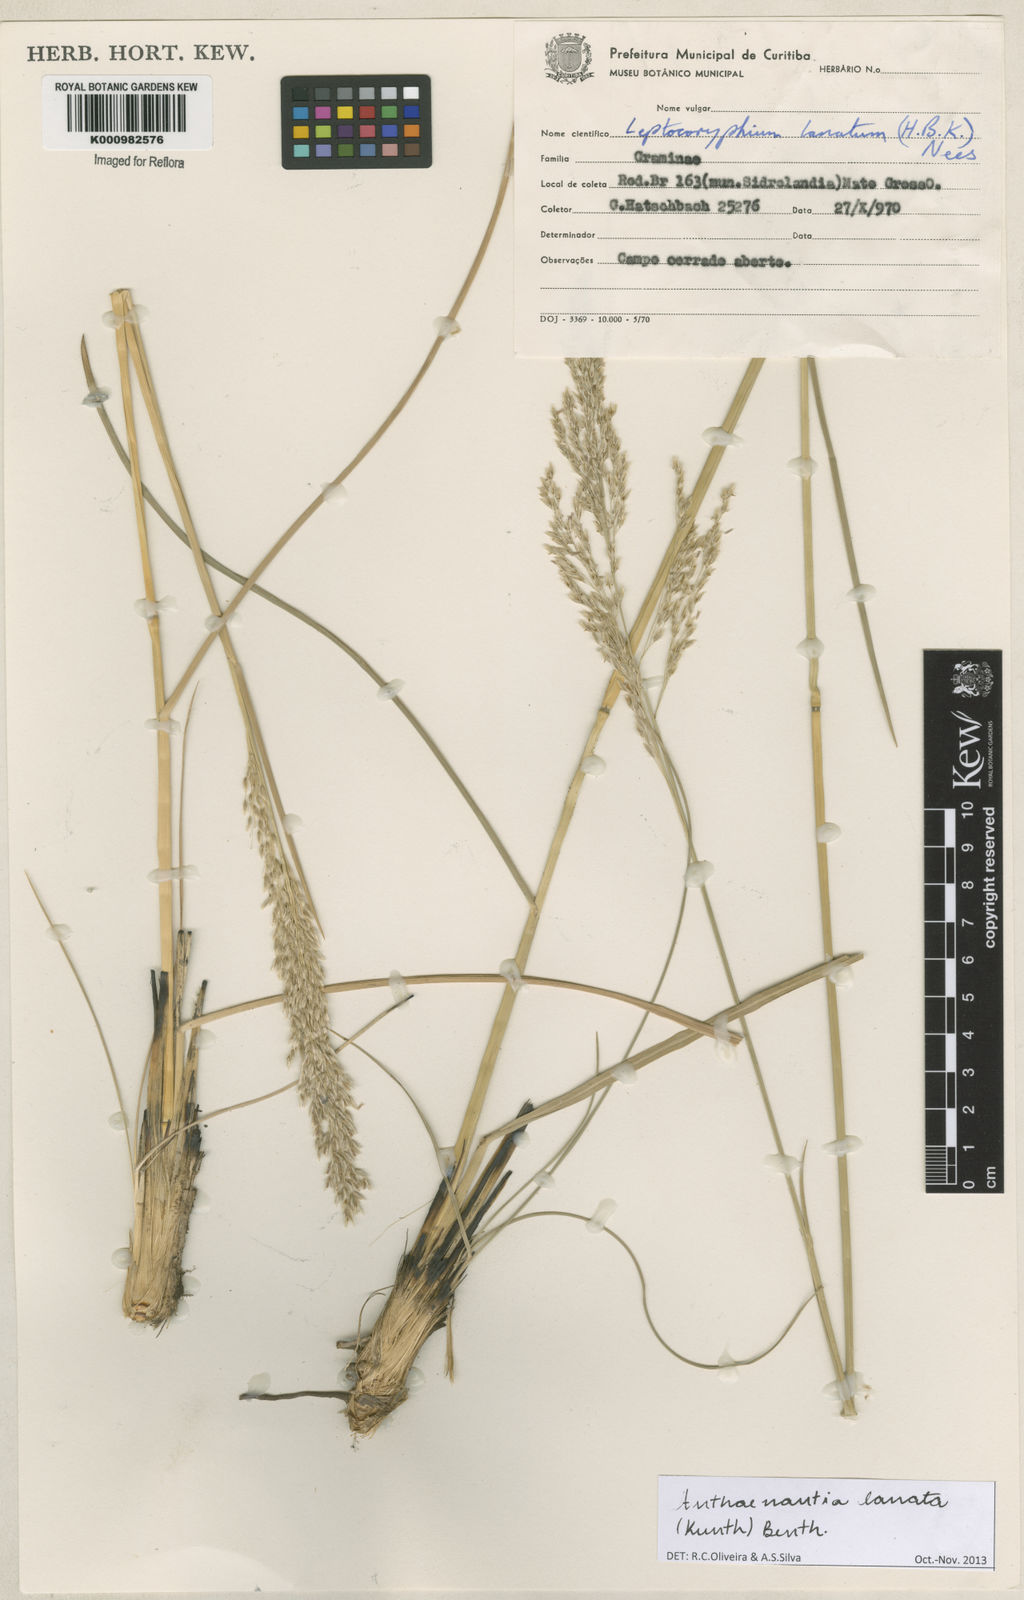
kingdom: Plantae
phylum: Tracheophyta
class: Liliopsida
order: Poales
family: Poaceae
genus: Anthenantia
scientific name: Anthenantia lanata
